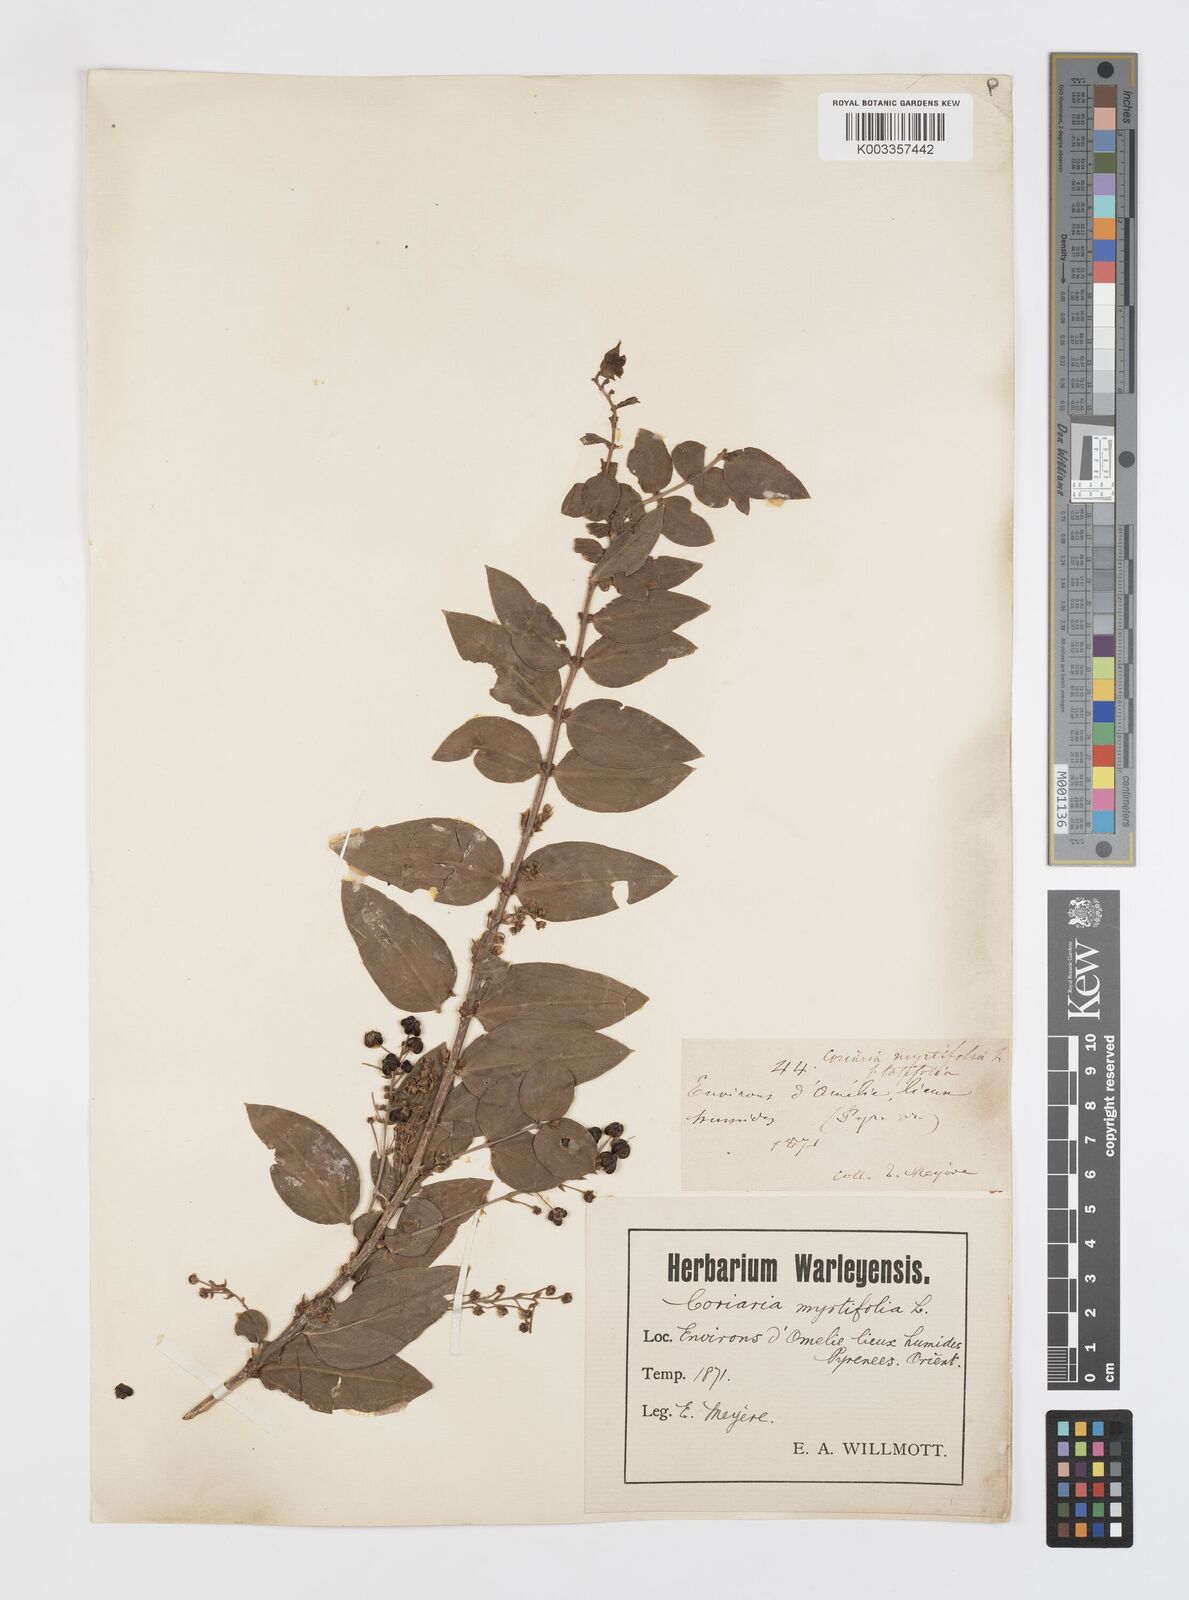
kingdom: Plantae
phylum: Tracheophyta
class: Magnoliopsida
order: Cucurbitales
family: Coriariaceae
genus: Coriaria
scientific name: Coriaria myrtifolia
